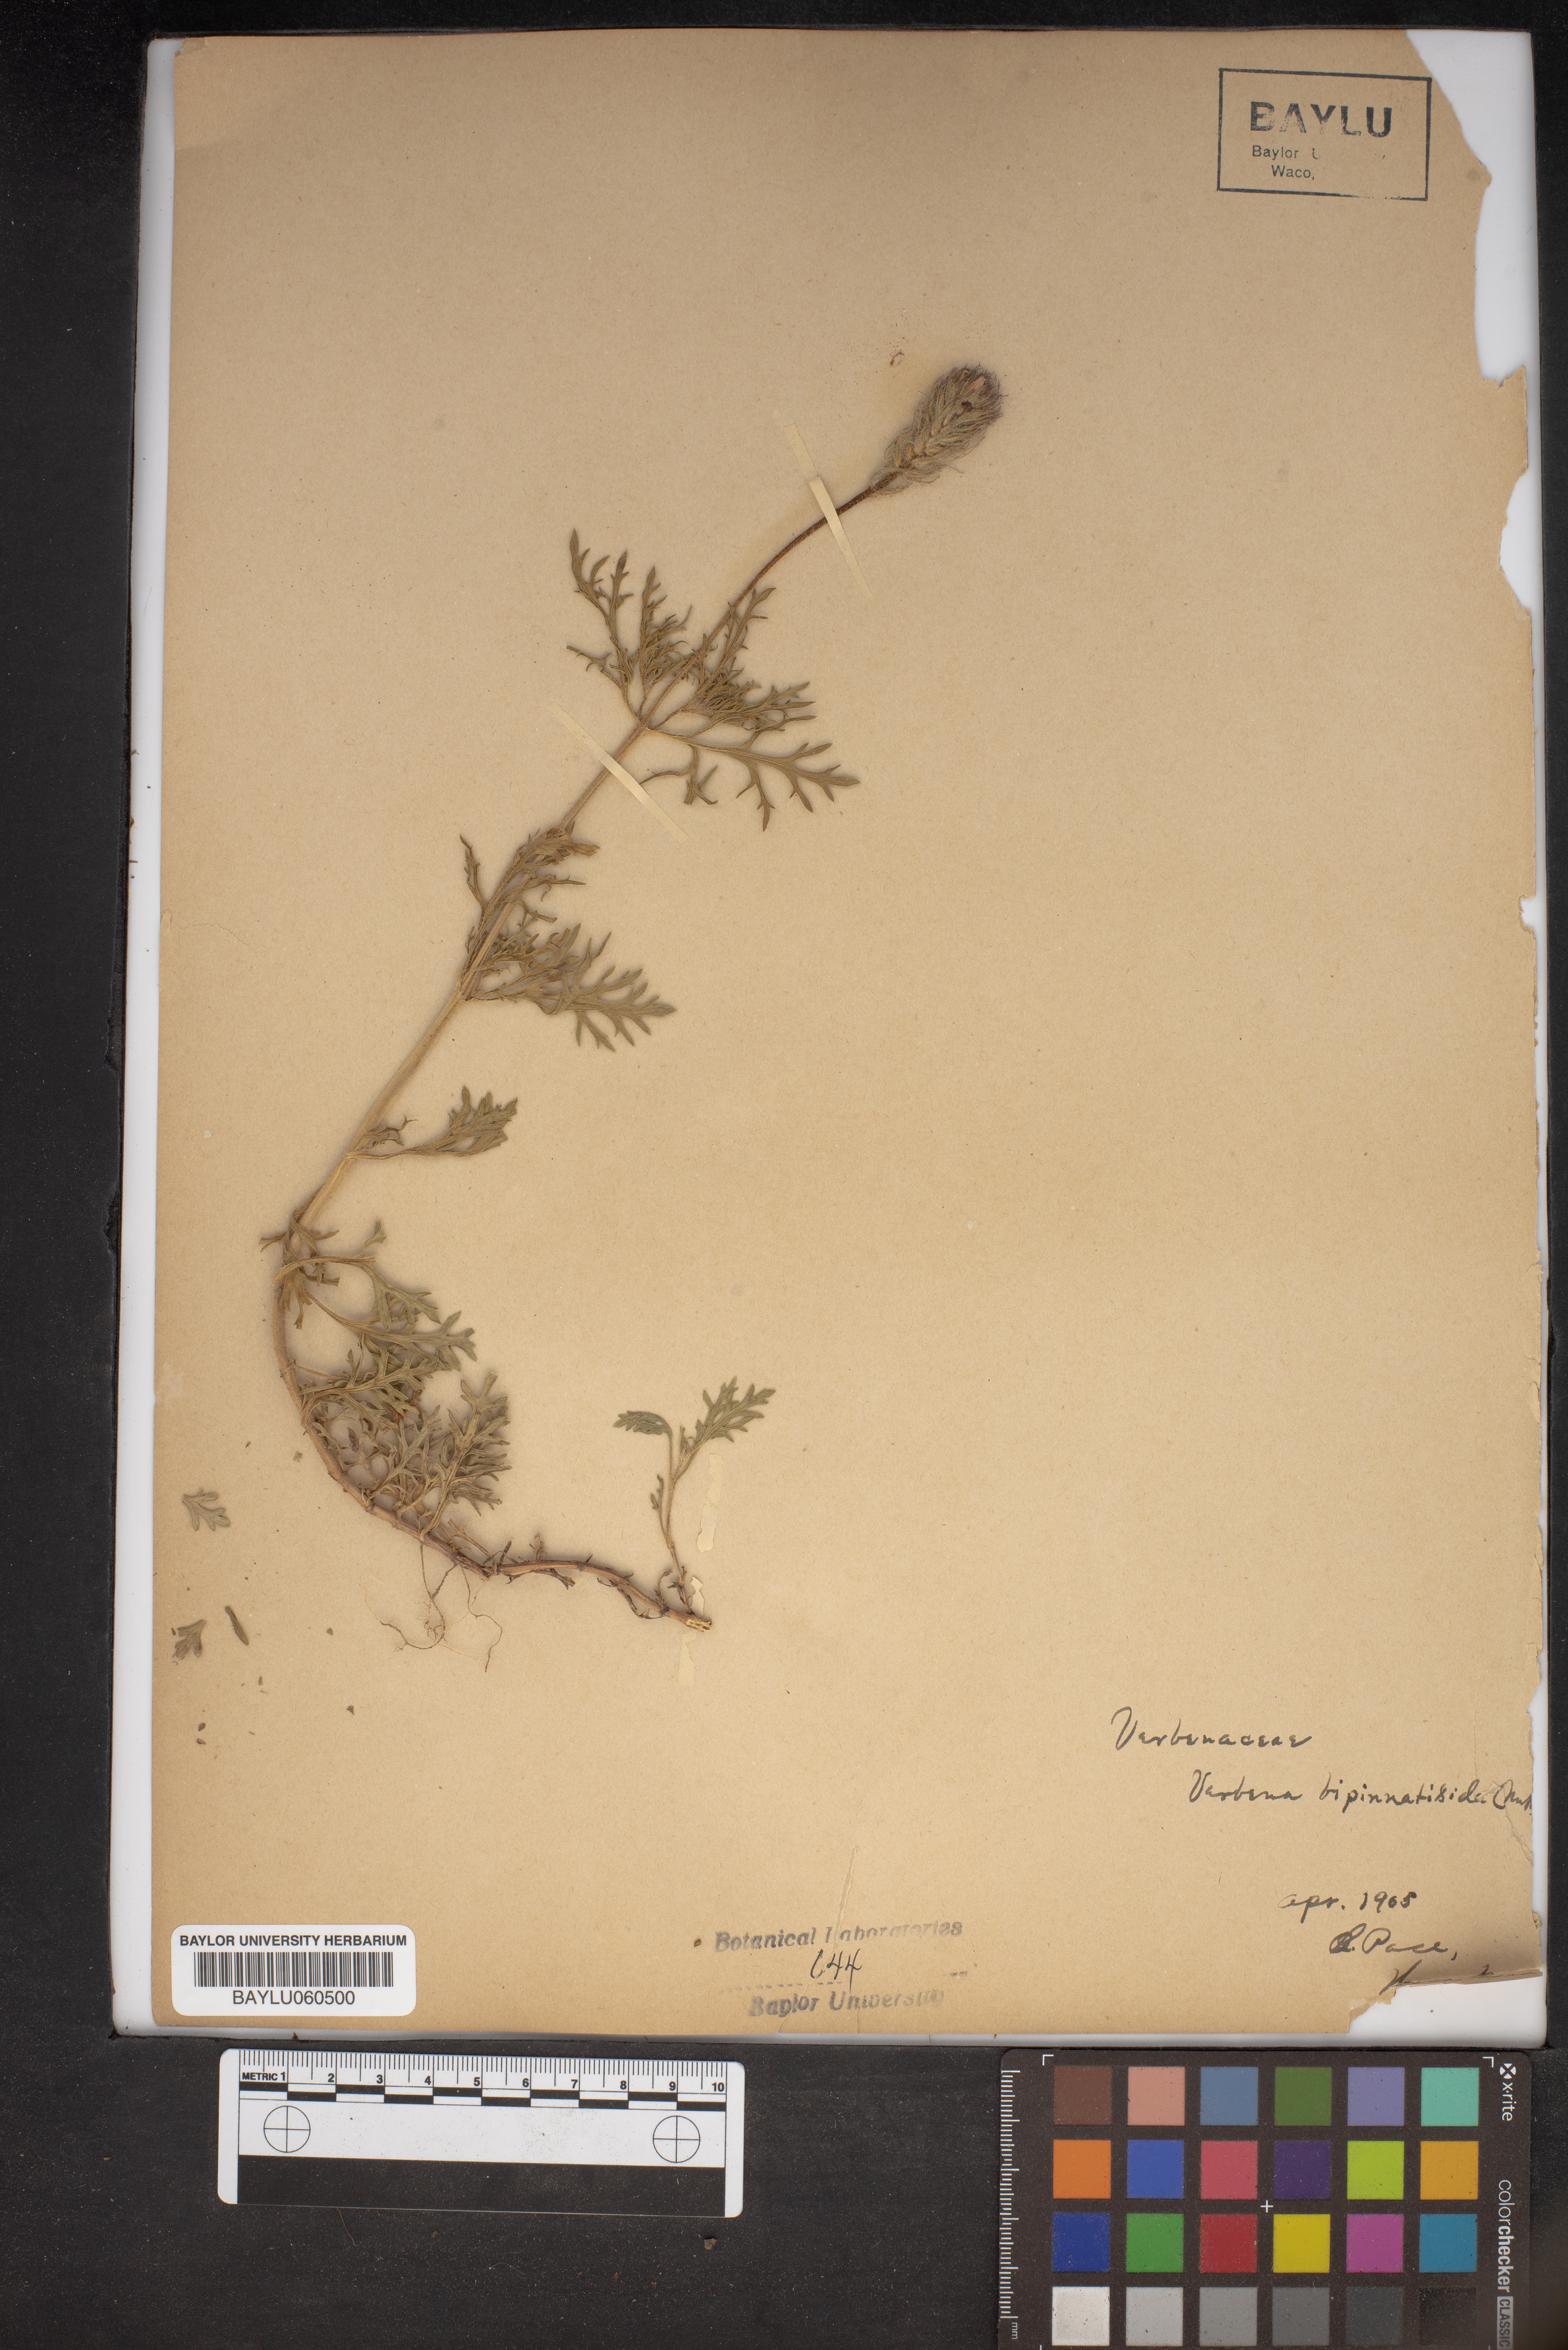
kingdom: Plantae
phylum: Tracheophyta
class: Magnoliopsida
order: Lamiales
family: Verbenaceae
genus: Verbena
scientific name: Verbena bipinnatifida
